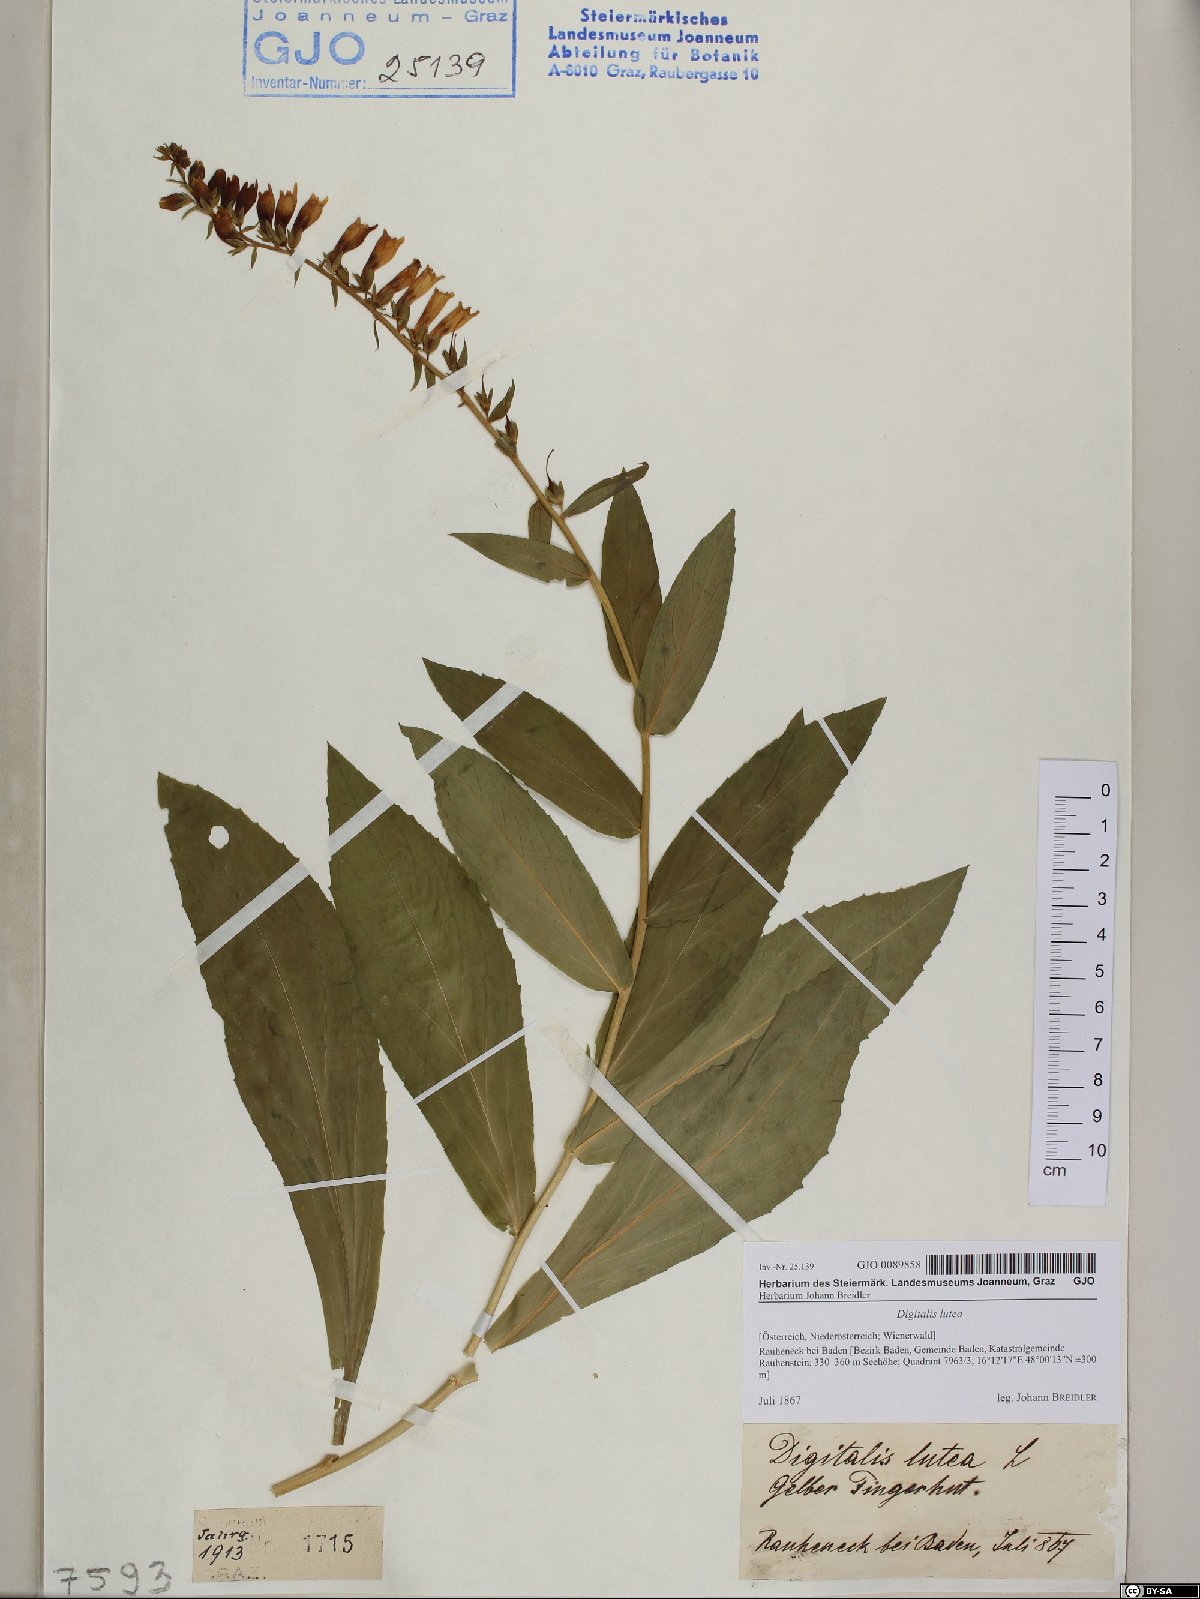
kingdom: Plantae
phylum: Tracheophyta
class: Magnoliopsida
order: Lamiales
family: Plantaginaceae
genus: Digitalis
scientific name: Digitalis lutea
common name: Straw foxglove
